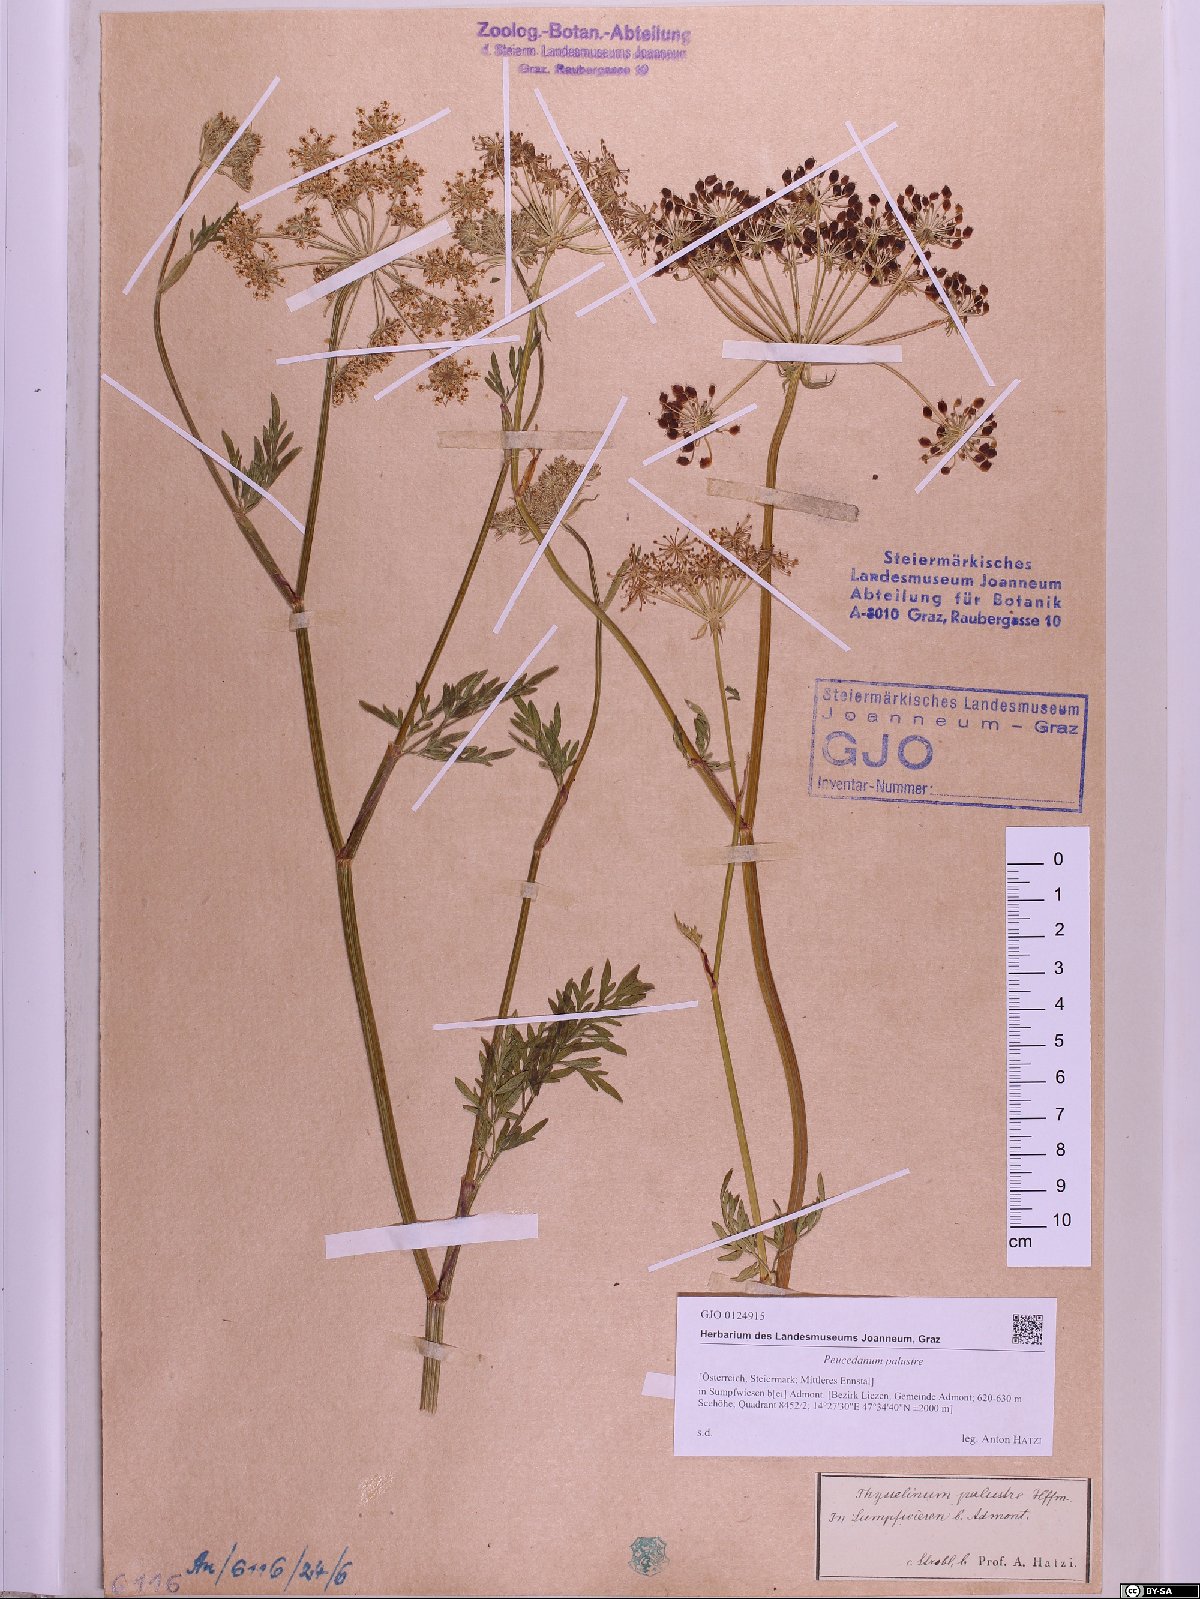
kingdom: Plantae
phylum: Tracheophyta
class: Magnoliopsida
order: Apiales
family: Apiaceae
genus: Thysselinum
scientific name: Thysselinum palustre
